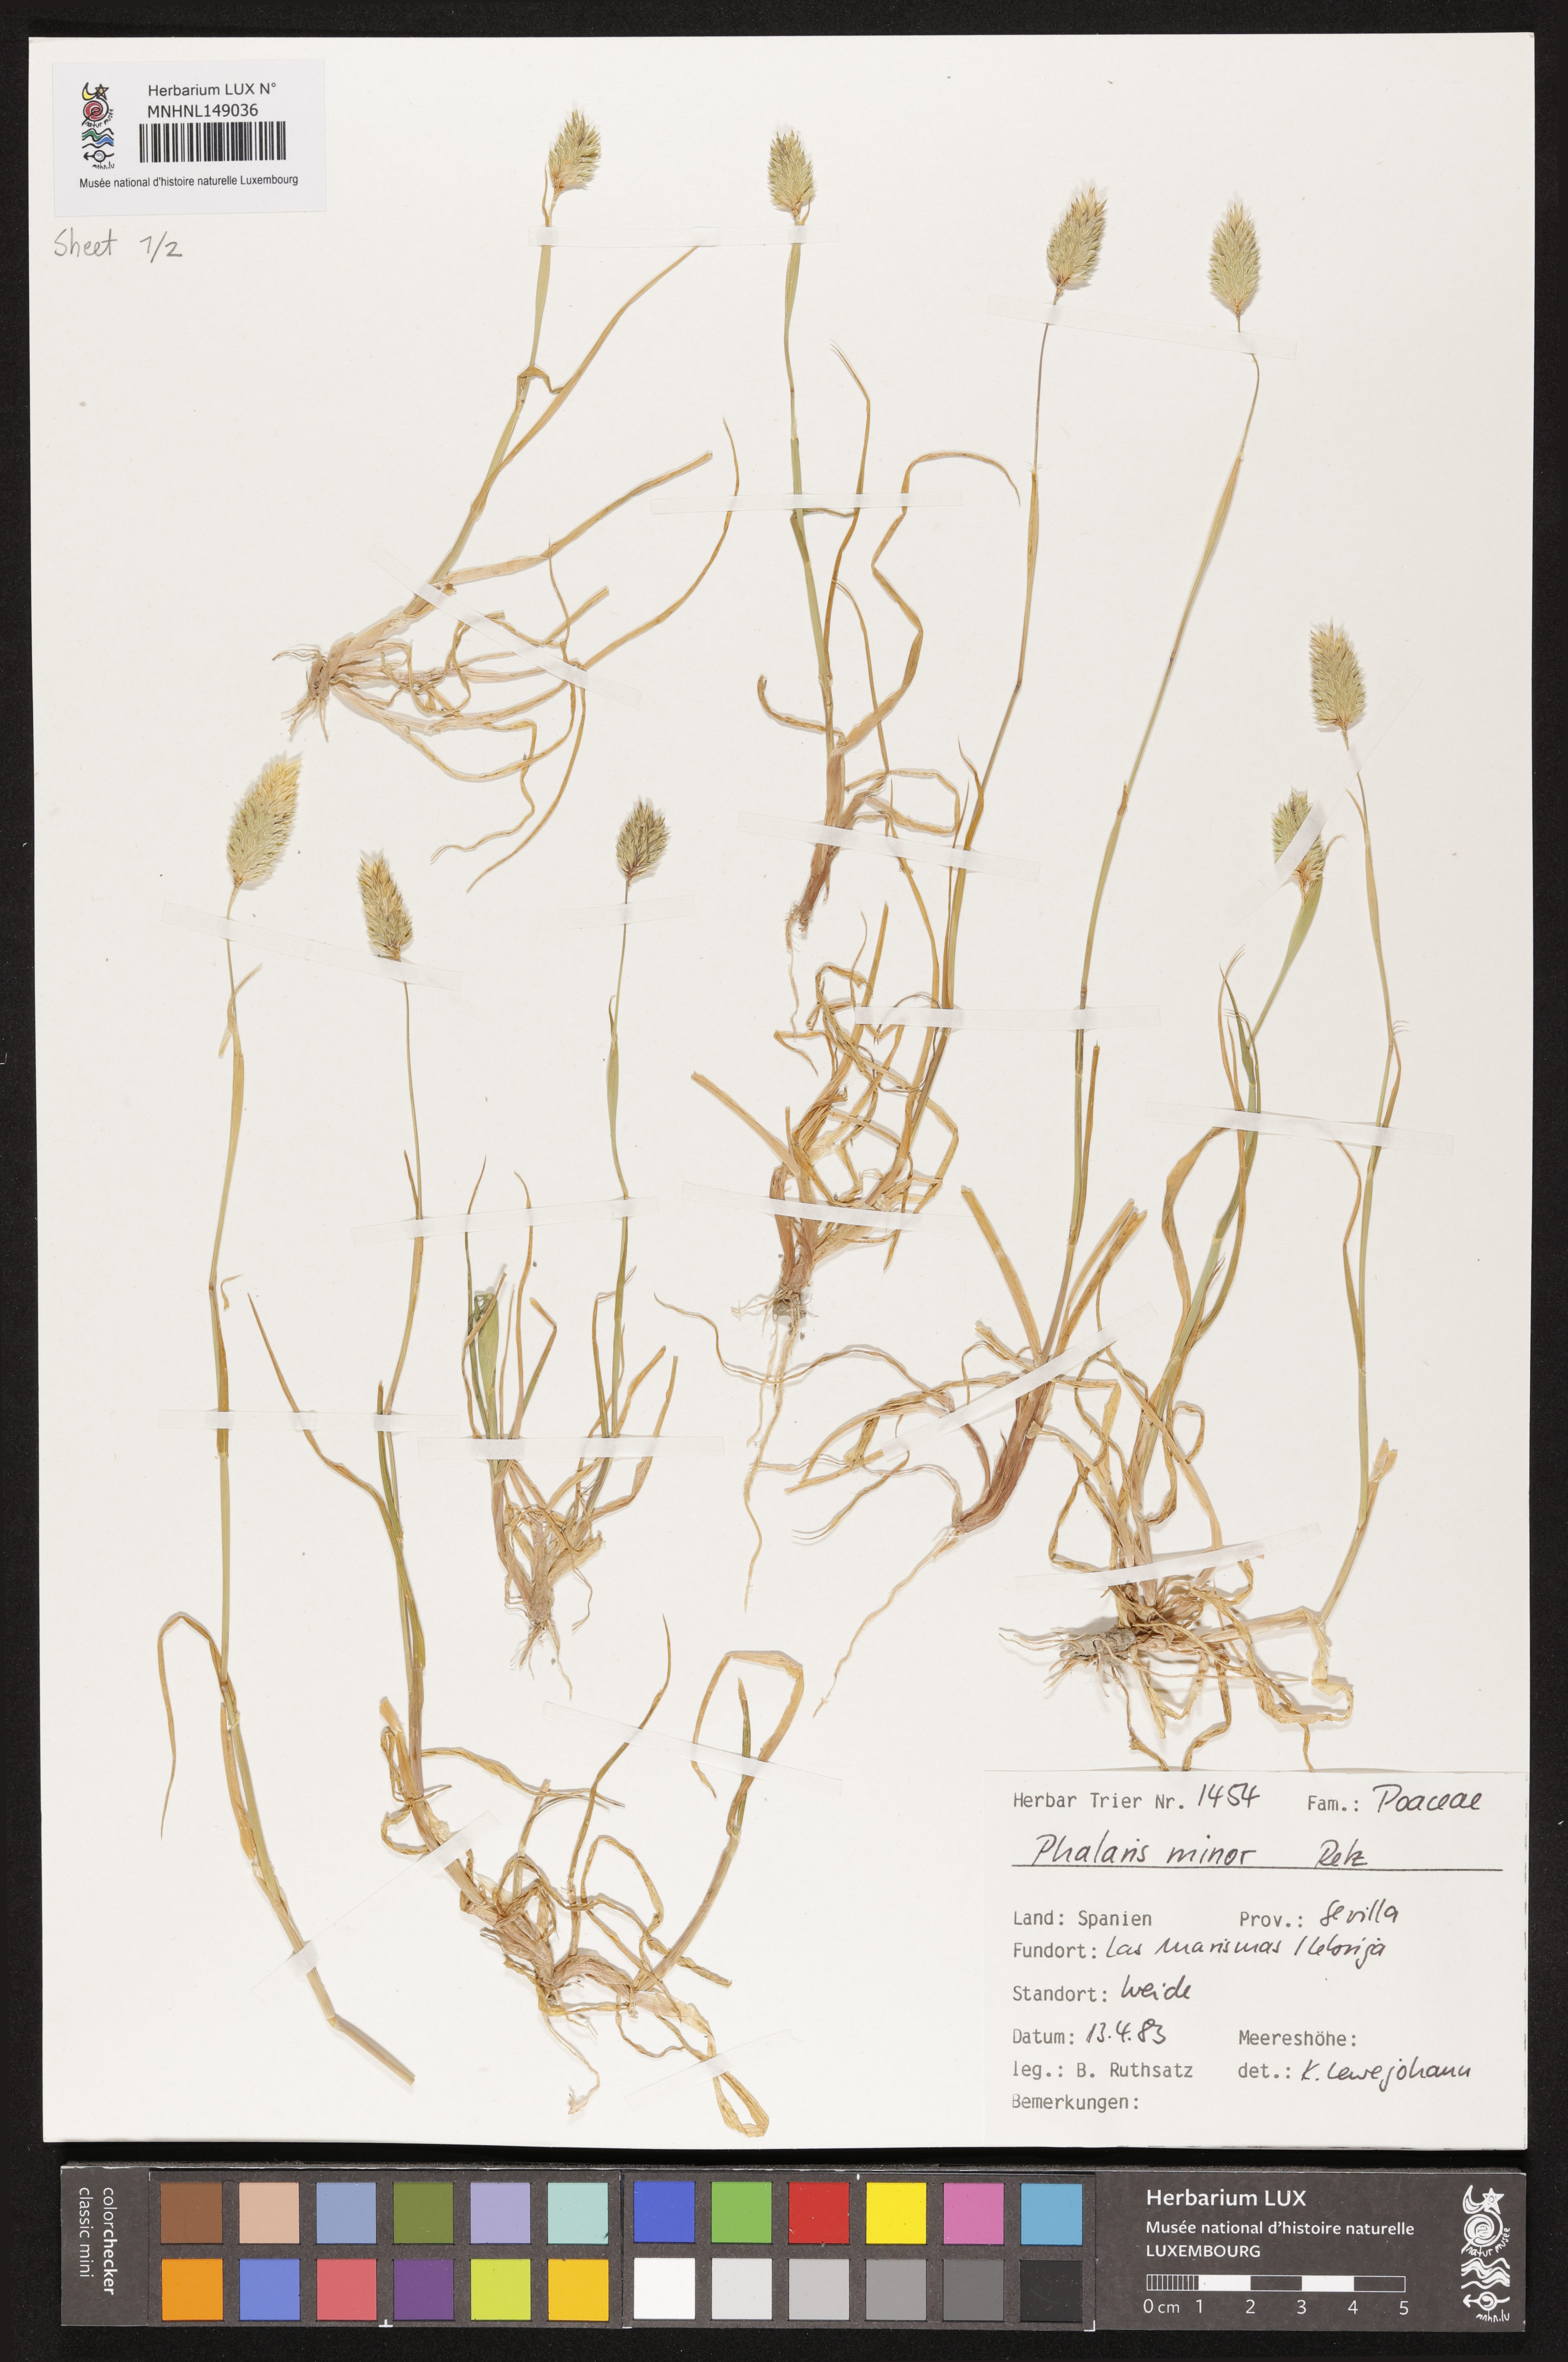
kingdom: Plantae
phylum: Tracheophyta
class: Liliopsida
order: Poales
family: Poaceae
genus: Phalaris
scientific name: Phalaris minor
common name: Littleseed canarygrass
